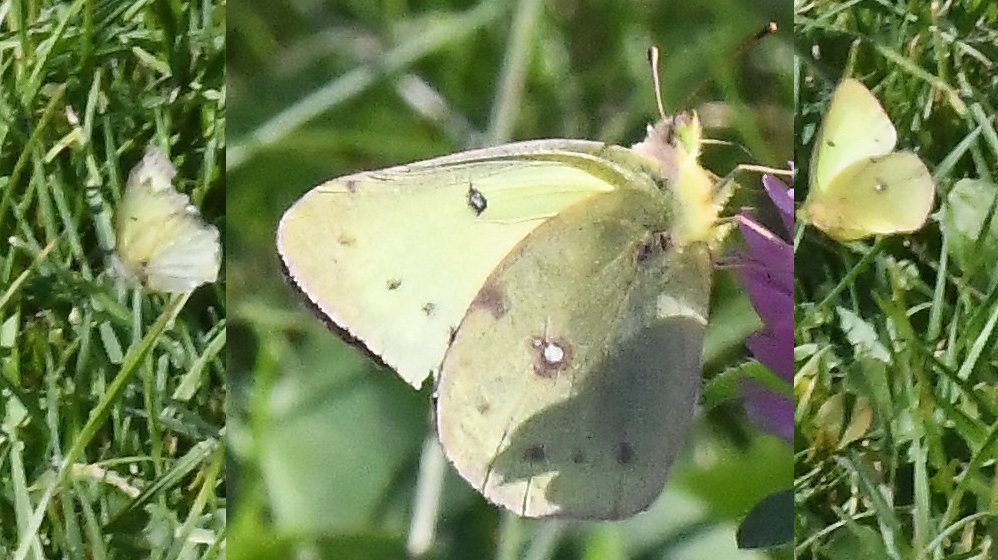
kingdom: Animalia
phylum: Arthropoda
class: Insecta
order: Lepidoptera
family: Pieridae
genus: Colias
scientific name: Colias philodice
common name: Clouded Sulphur
